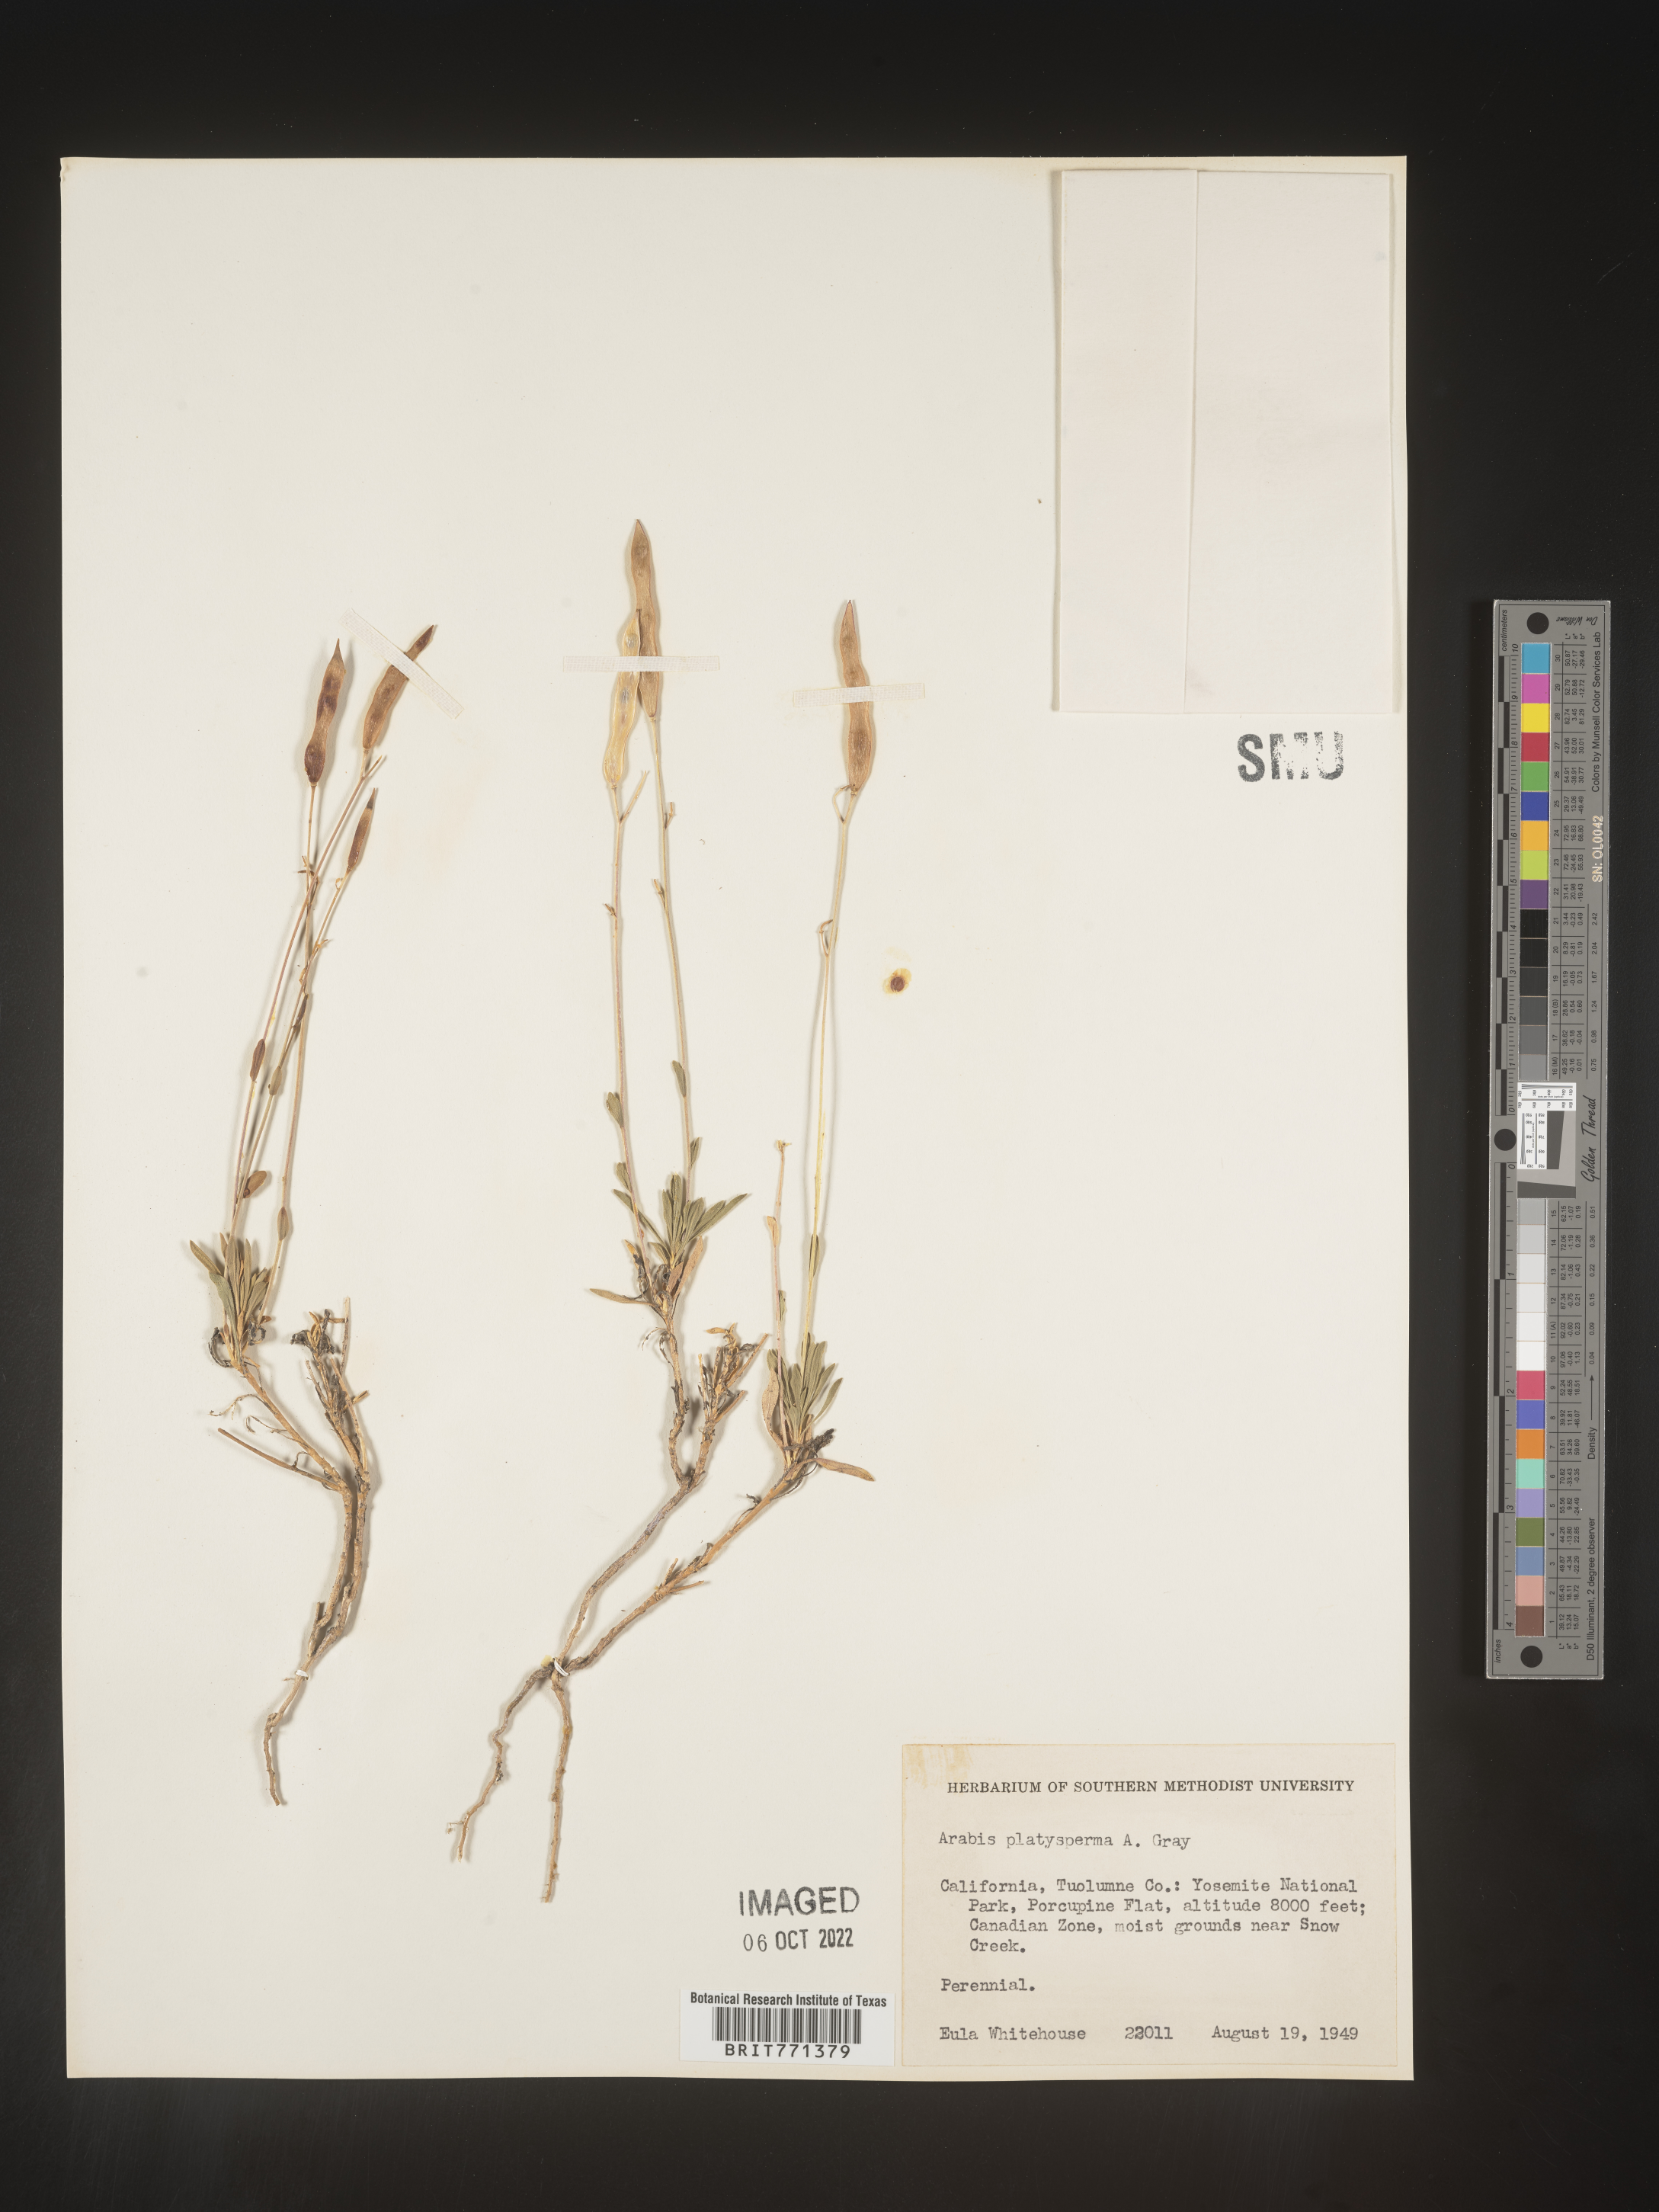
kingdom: Plantae
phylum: Tracheophyta
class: Magnoliopsida
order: Brassicales
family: Brassicaceae
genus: Arabis
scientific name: Arabis
